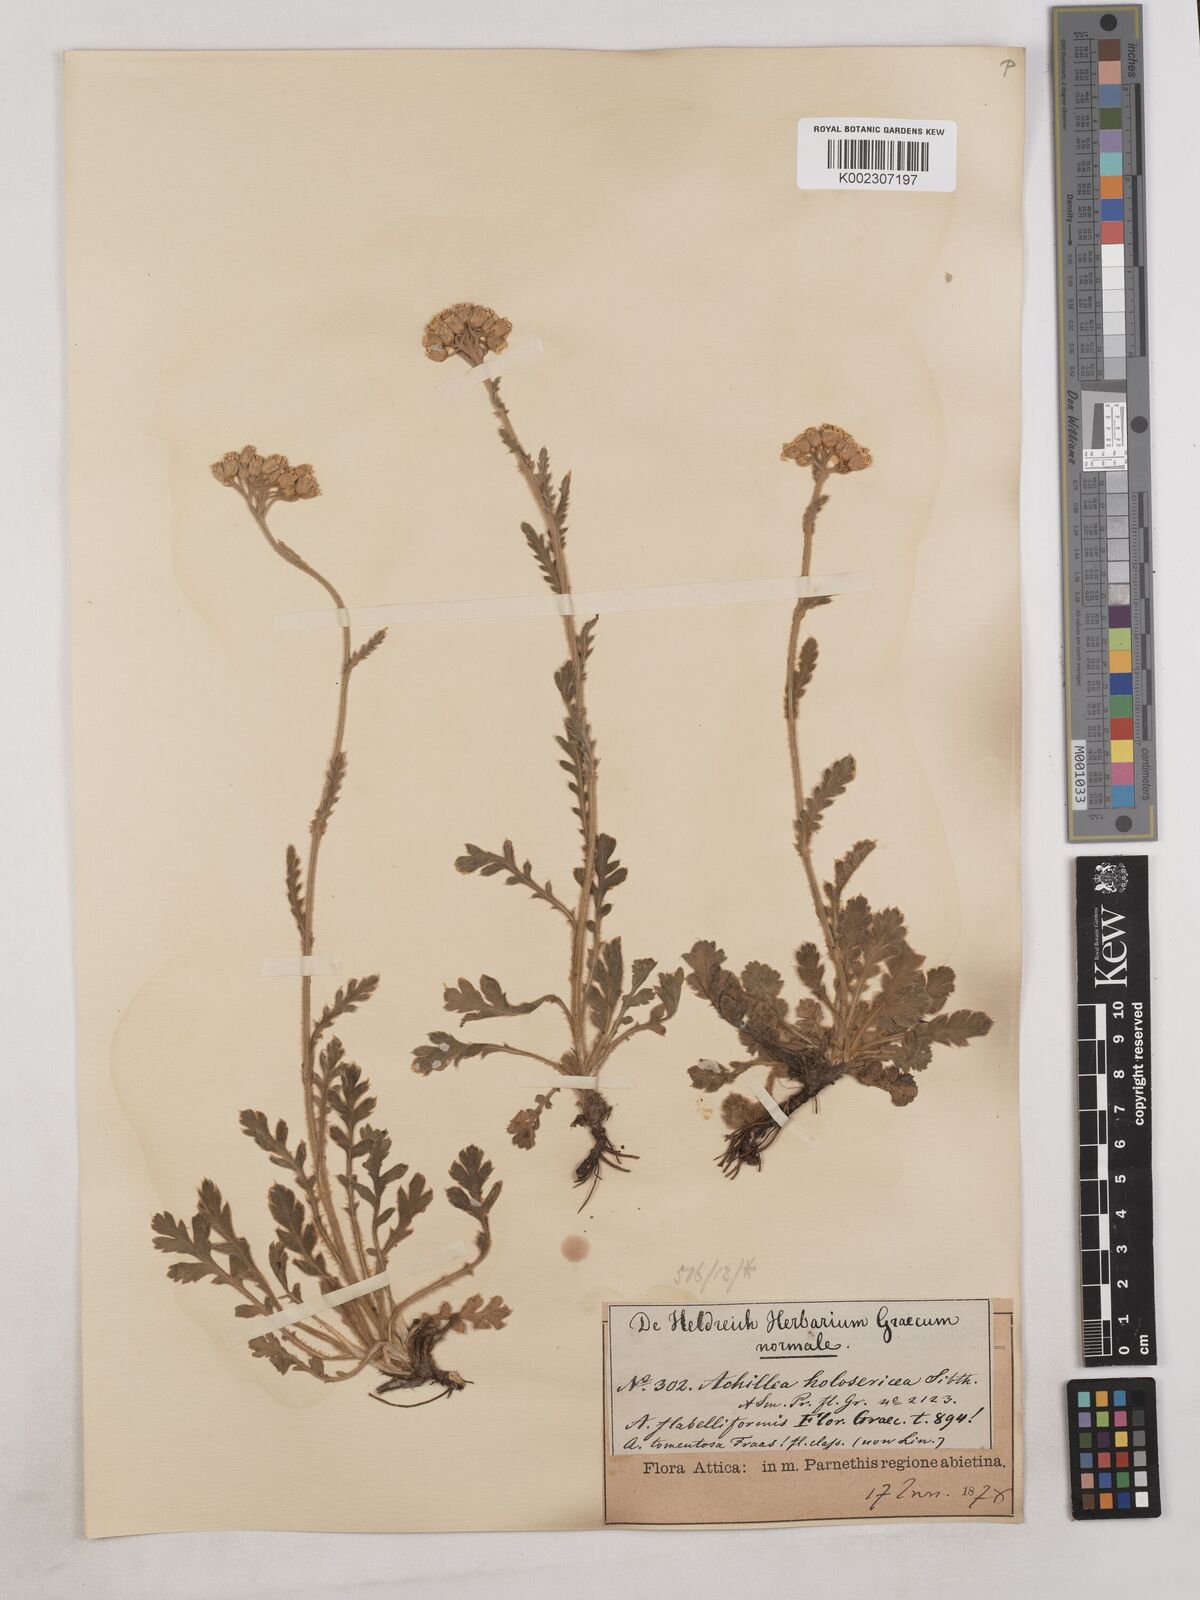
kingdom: Plantae
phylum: Tracheophyta
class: Magnoliopsida
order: Asterales
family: Asteraceae
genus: Achillea
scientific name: Achillea holosericea
